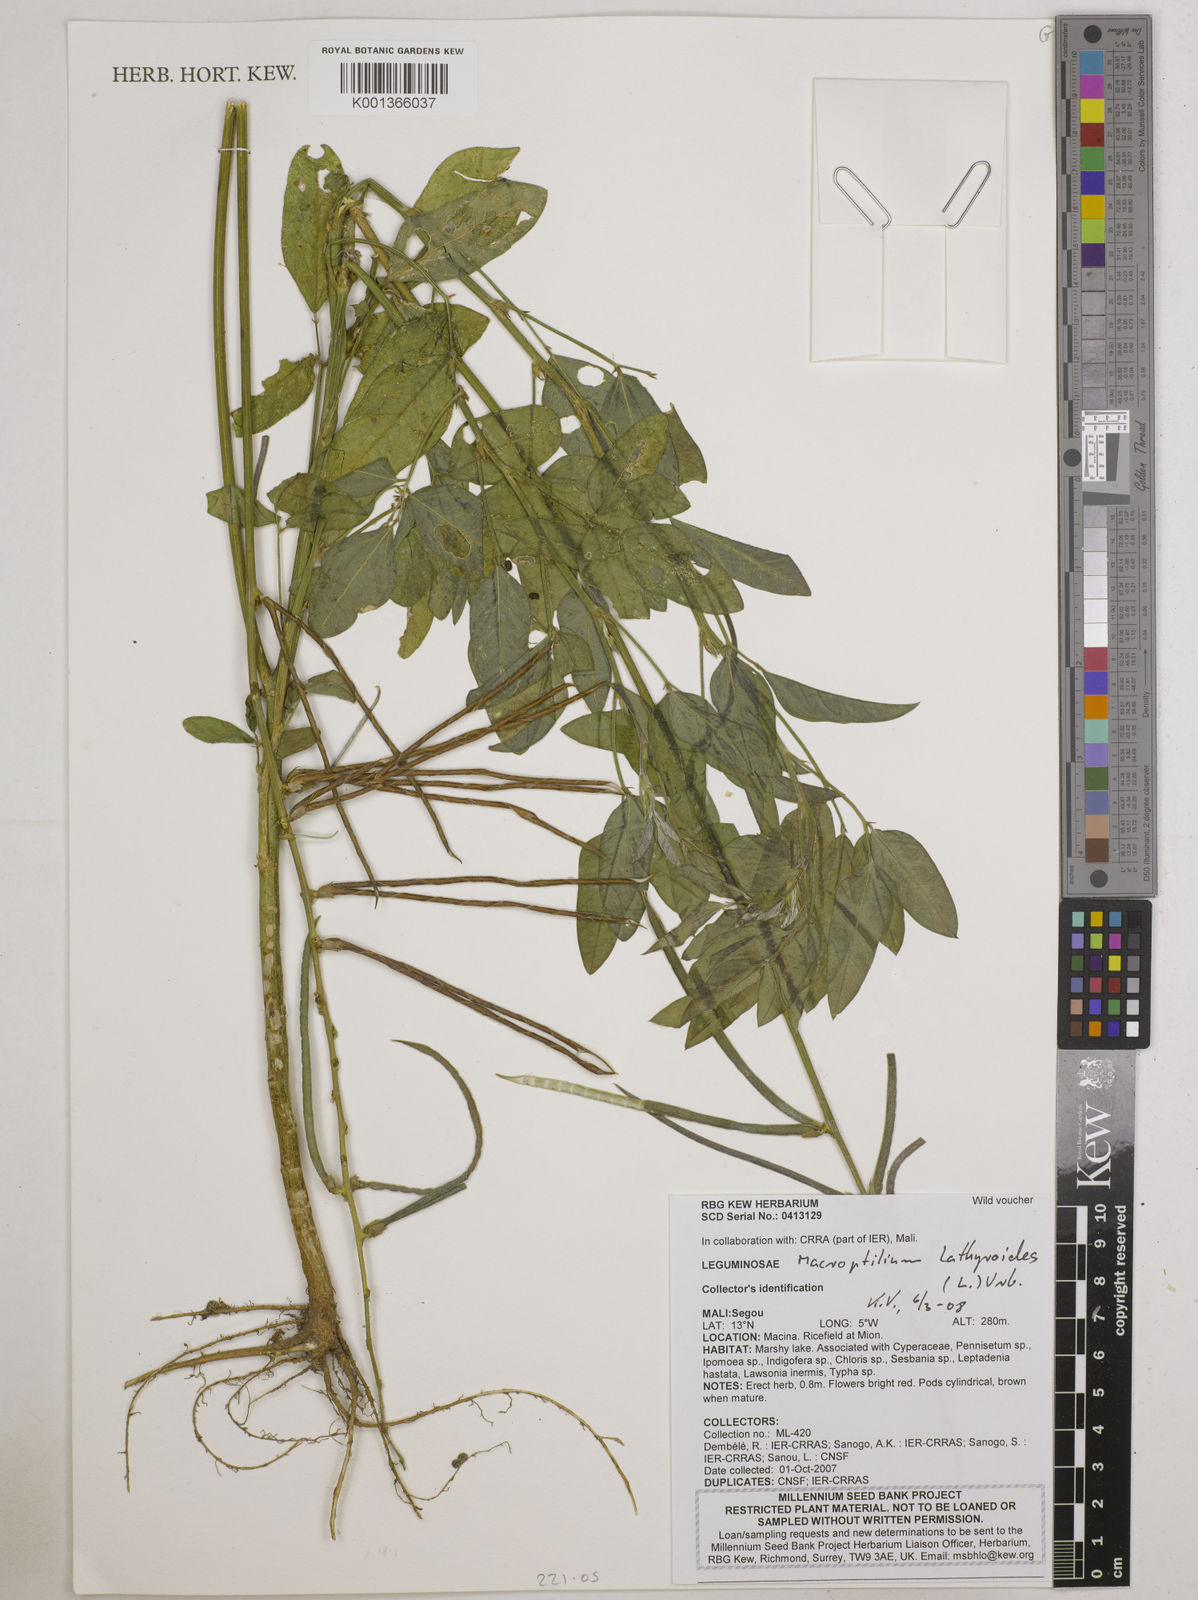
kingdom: Plantae
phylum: Tracheophyta
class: Magnoliopsida
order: Fabales
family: Fabaceae
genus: Macroptilium
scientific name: Macroptilium lathyroides
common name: Wild bushbean
